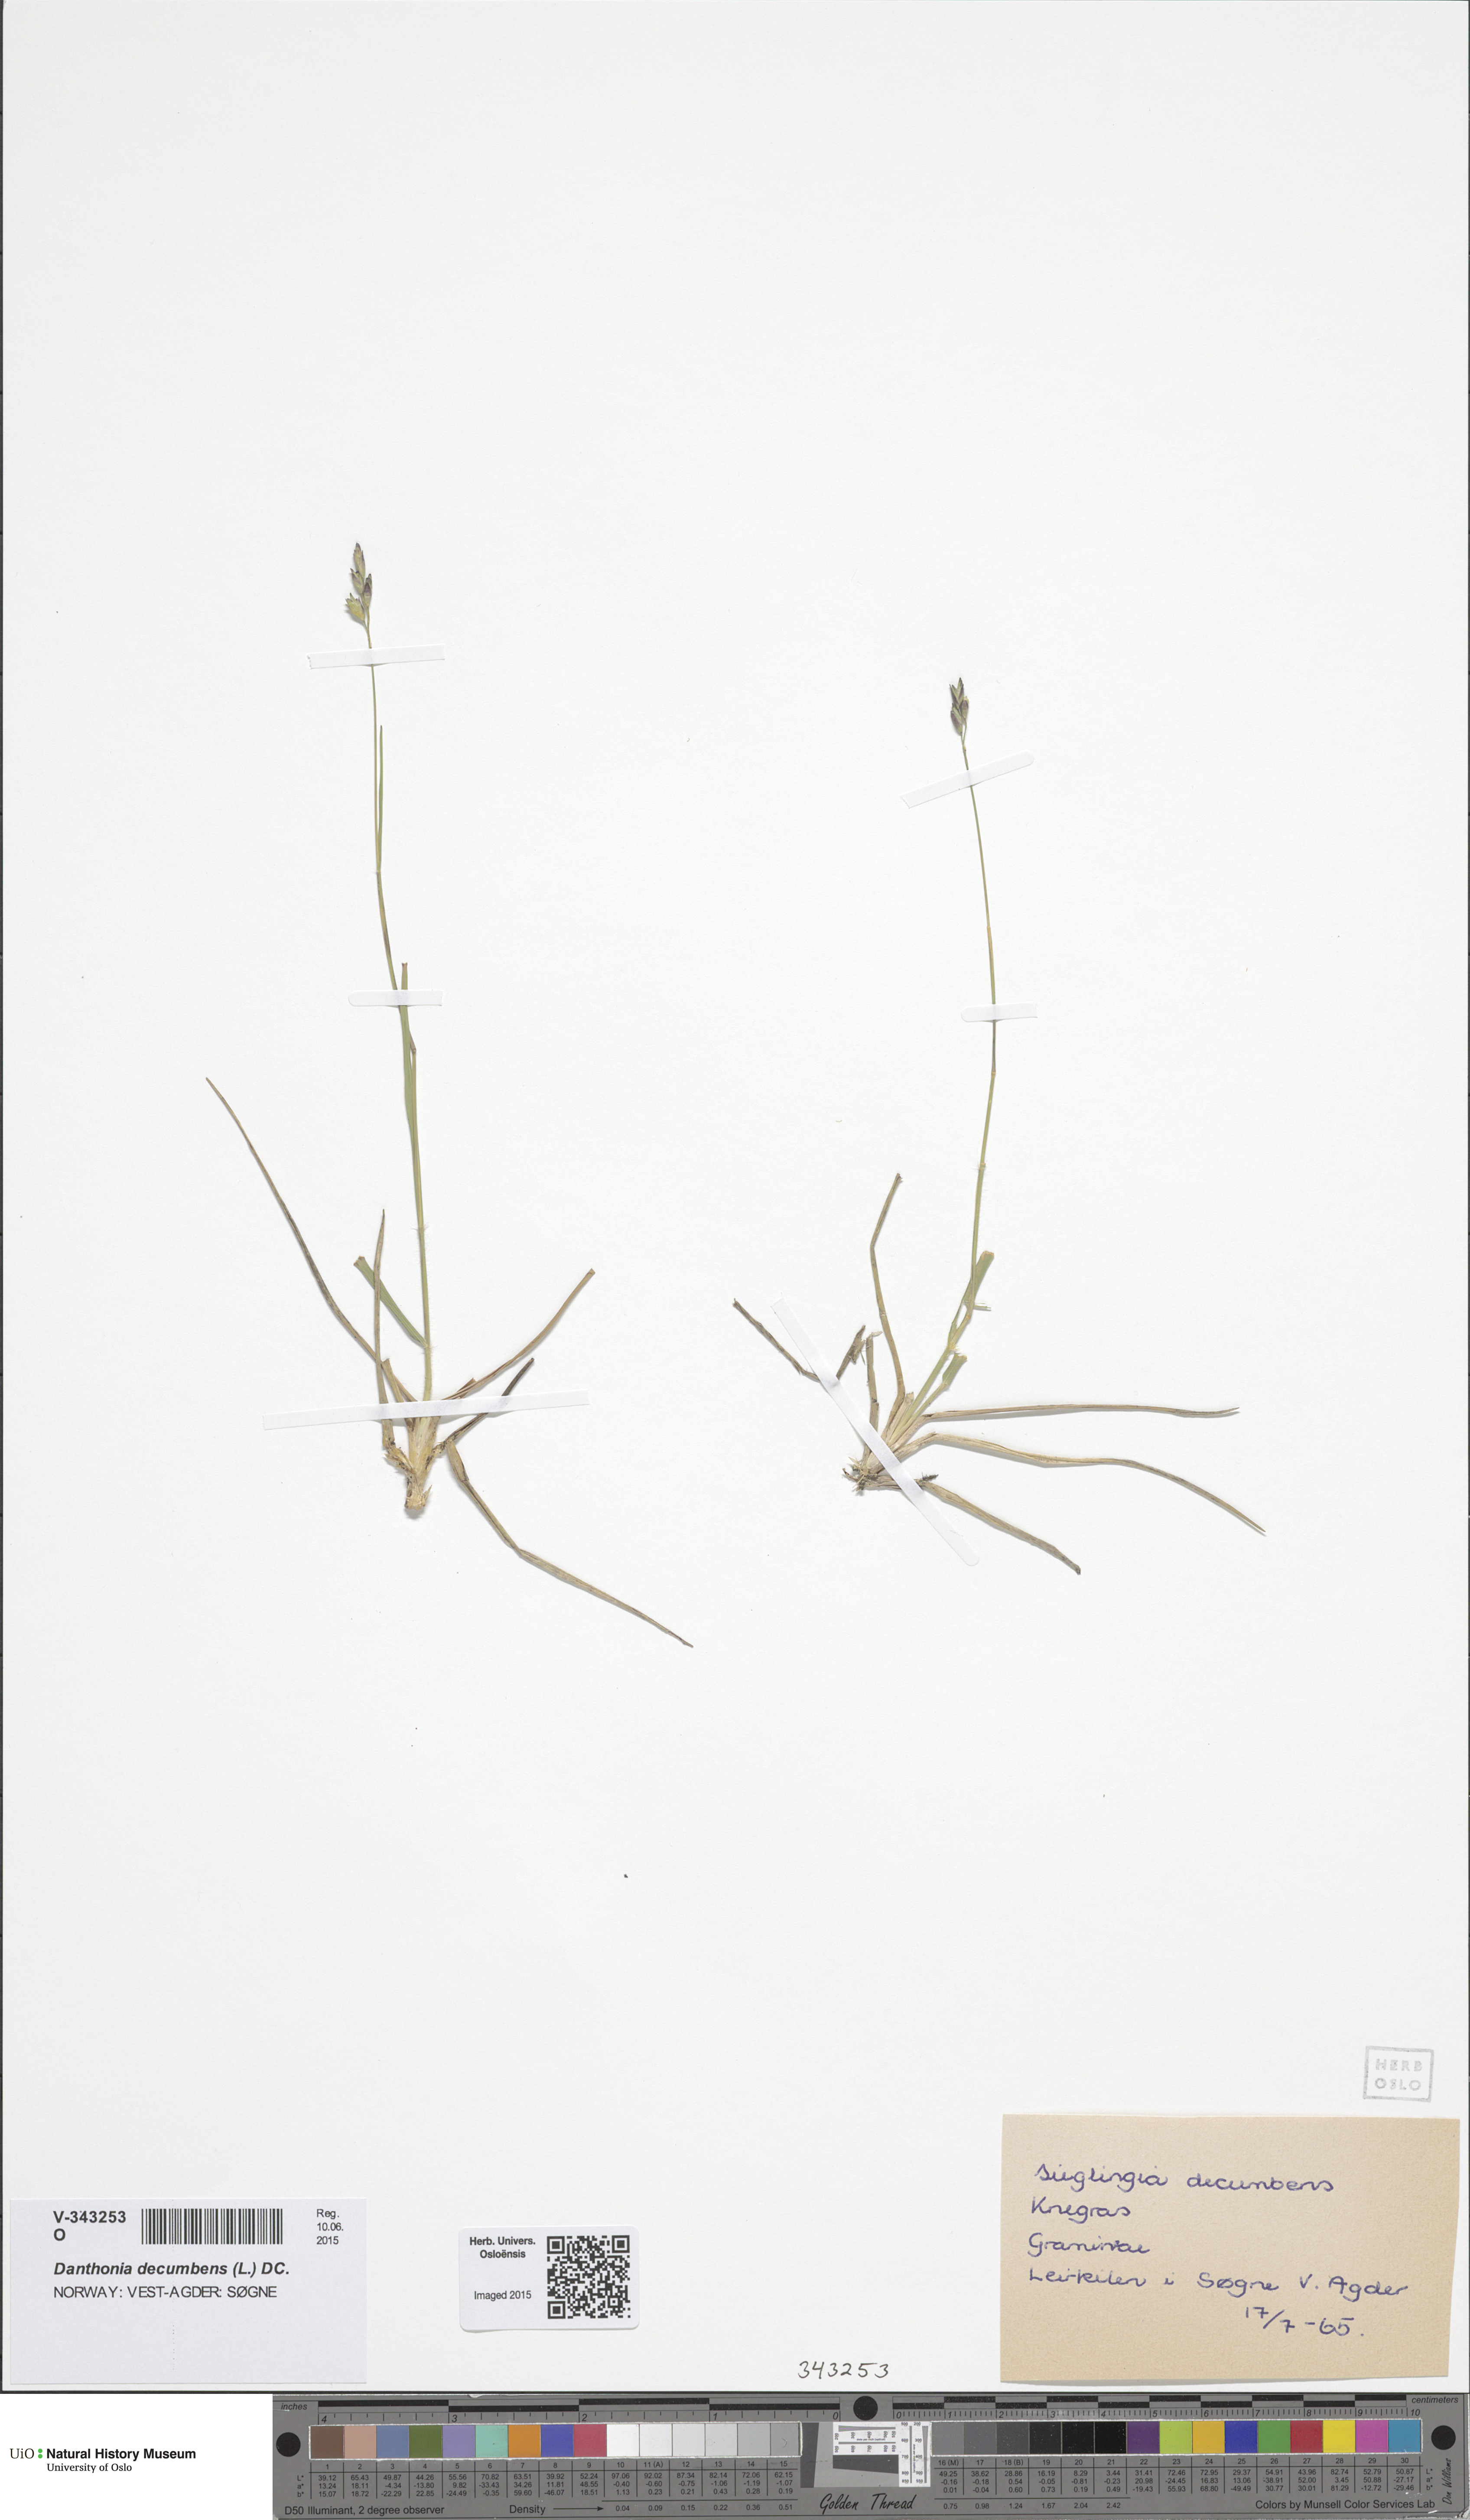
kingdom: Plantae
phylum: Tracheophyta
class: Liliopsida
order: Poales
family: Poaceae
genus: Danthonia
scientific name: Danthonia decumbens
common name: Common heathgrass
